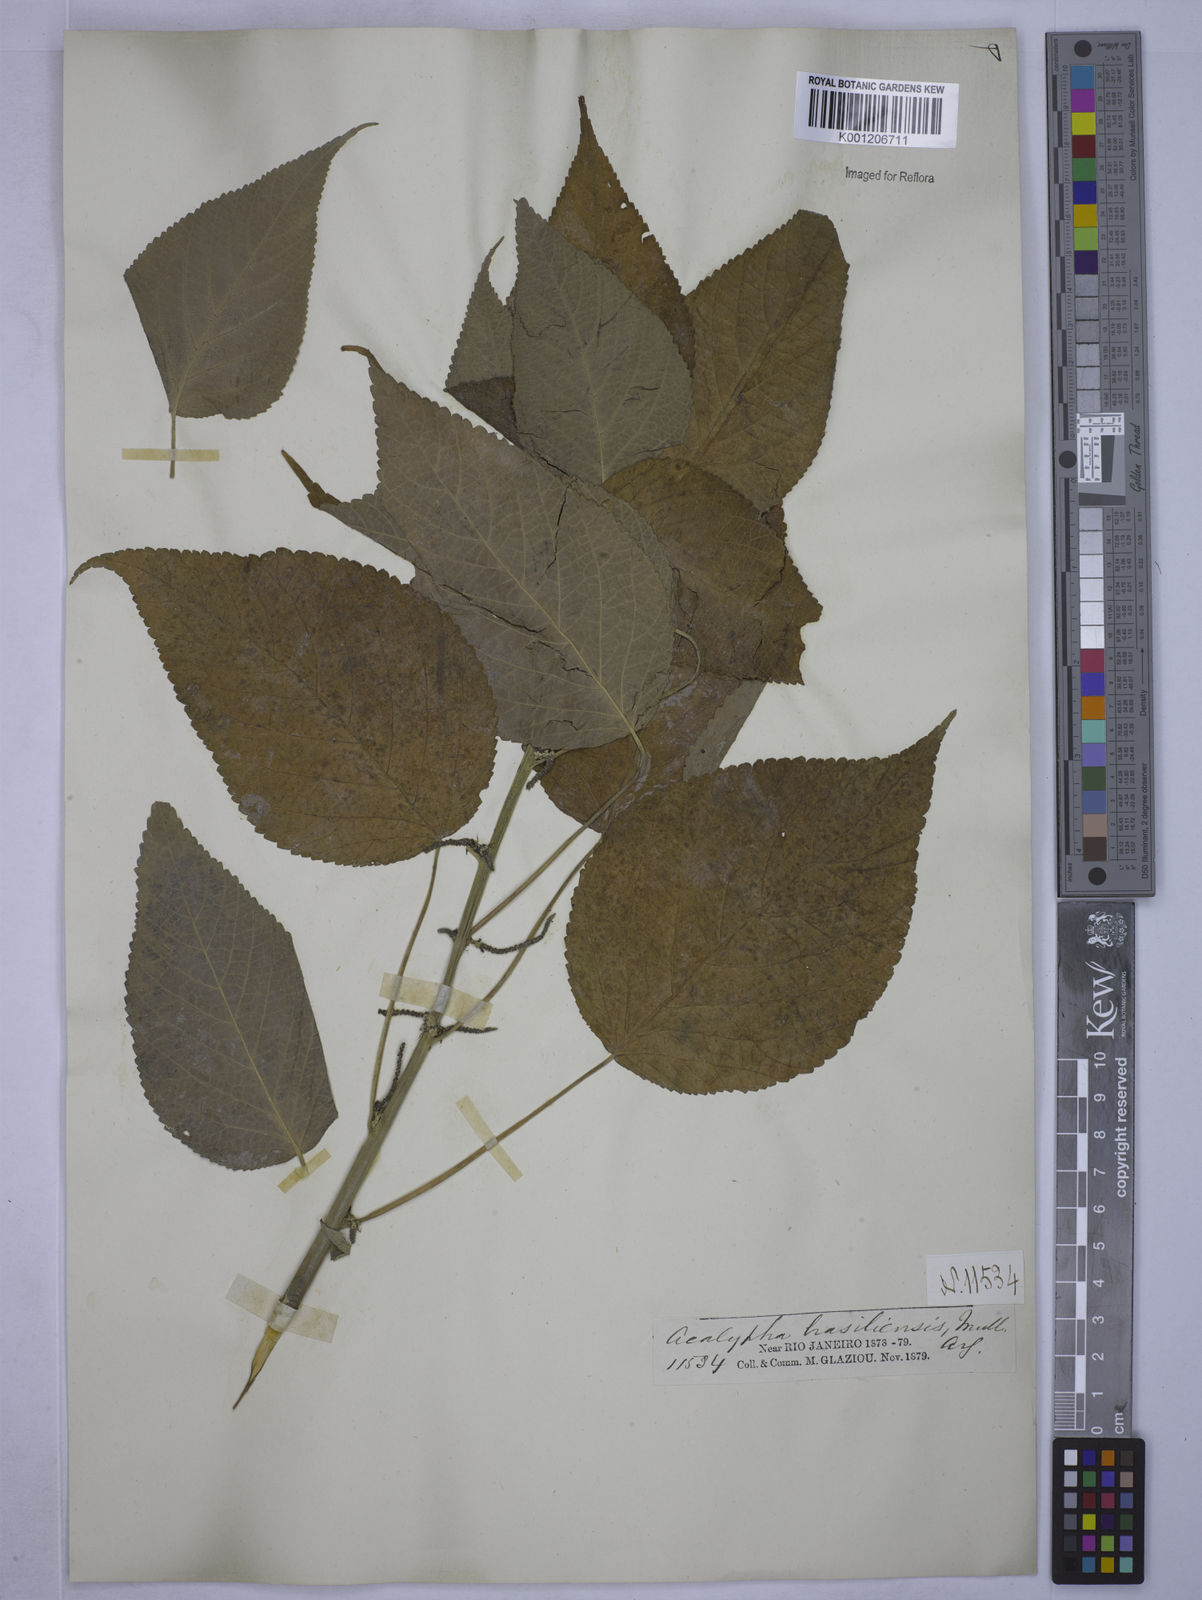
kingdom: Plantae
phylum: Tracheophyta
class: Magnoliopsida
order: Malpighiales
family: Euphorbiaceae
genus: Acalypha
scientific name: Acalypha
